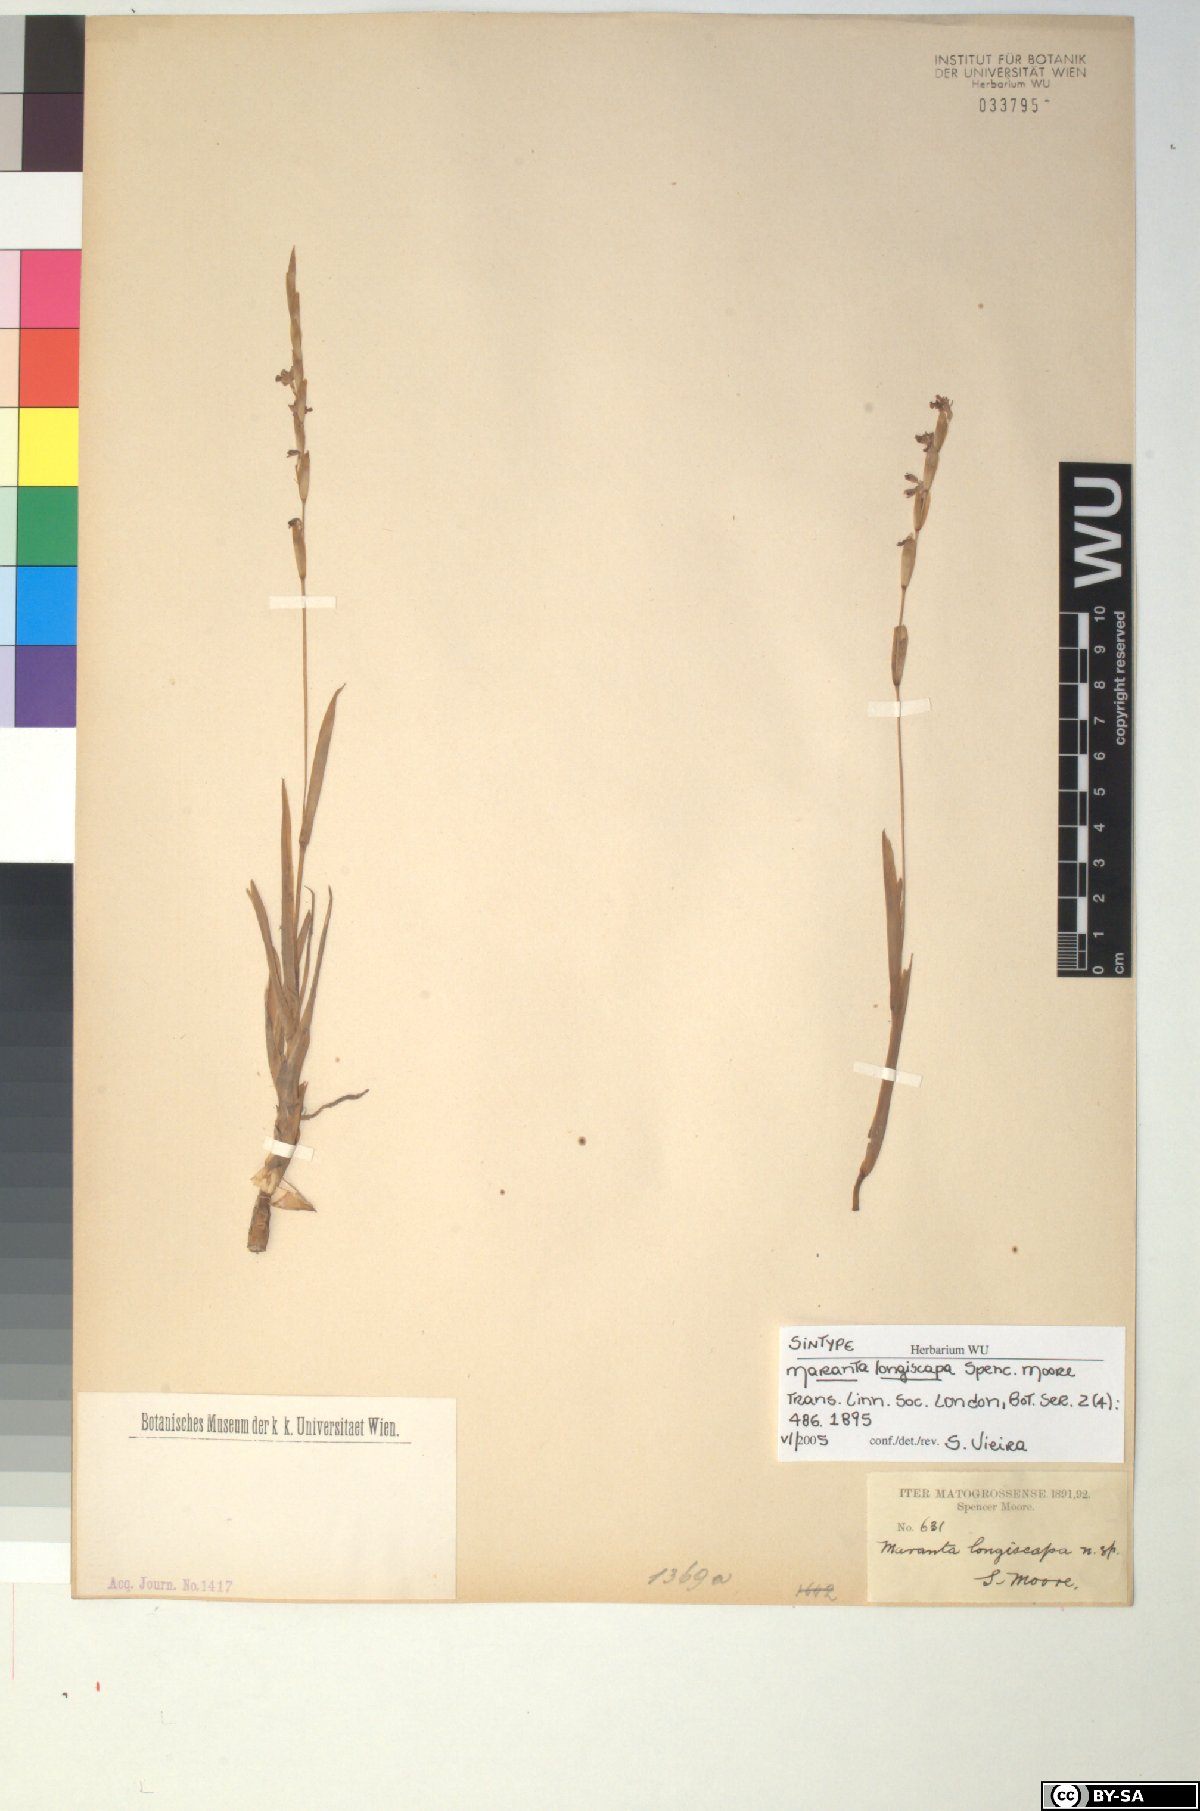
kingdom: Plantae
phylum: Tracheophyta
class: Liliopsida
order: Zingiberales
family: Marantaceae
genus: Maranta
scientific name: Maranta phrynioides
